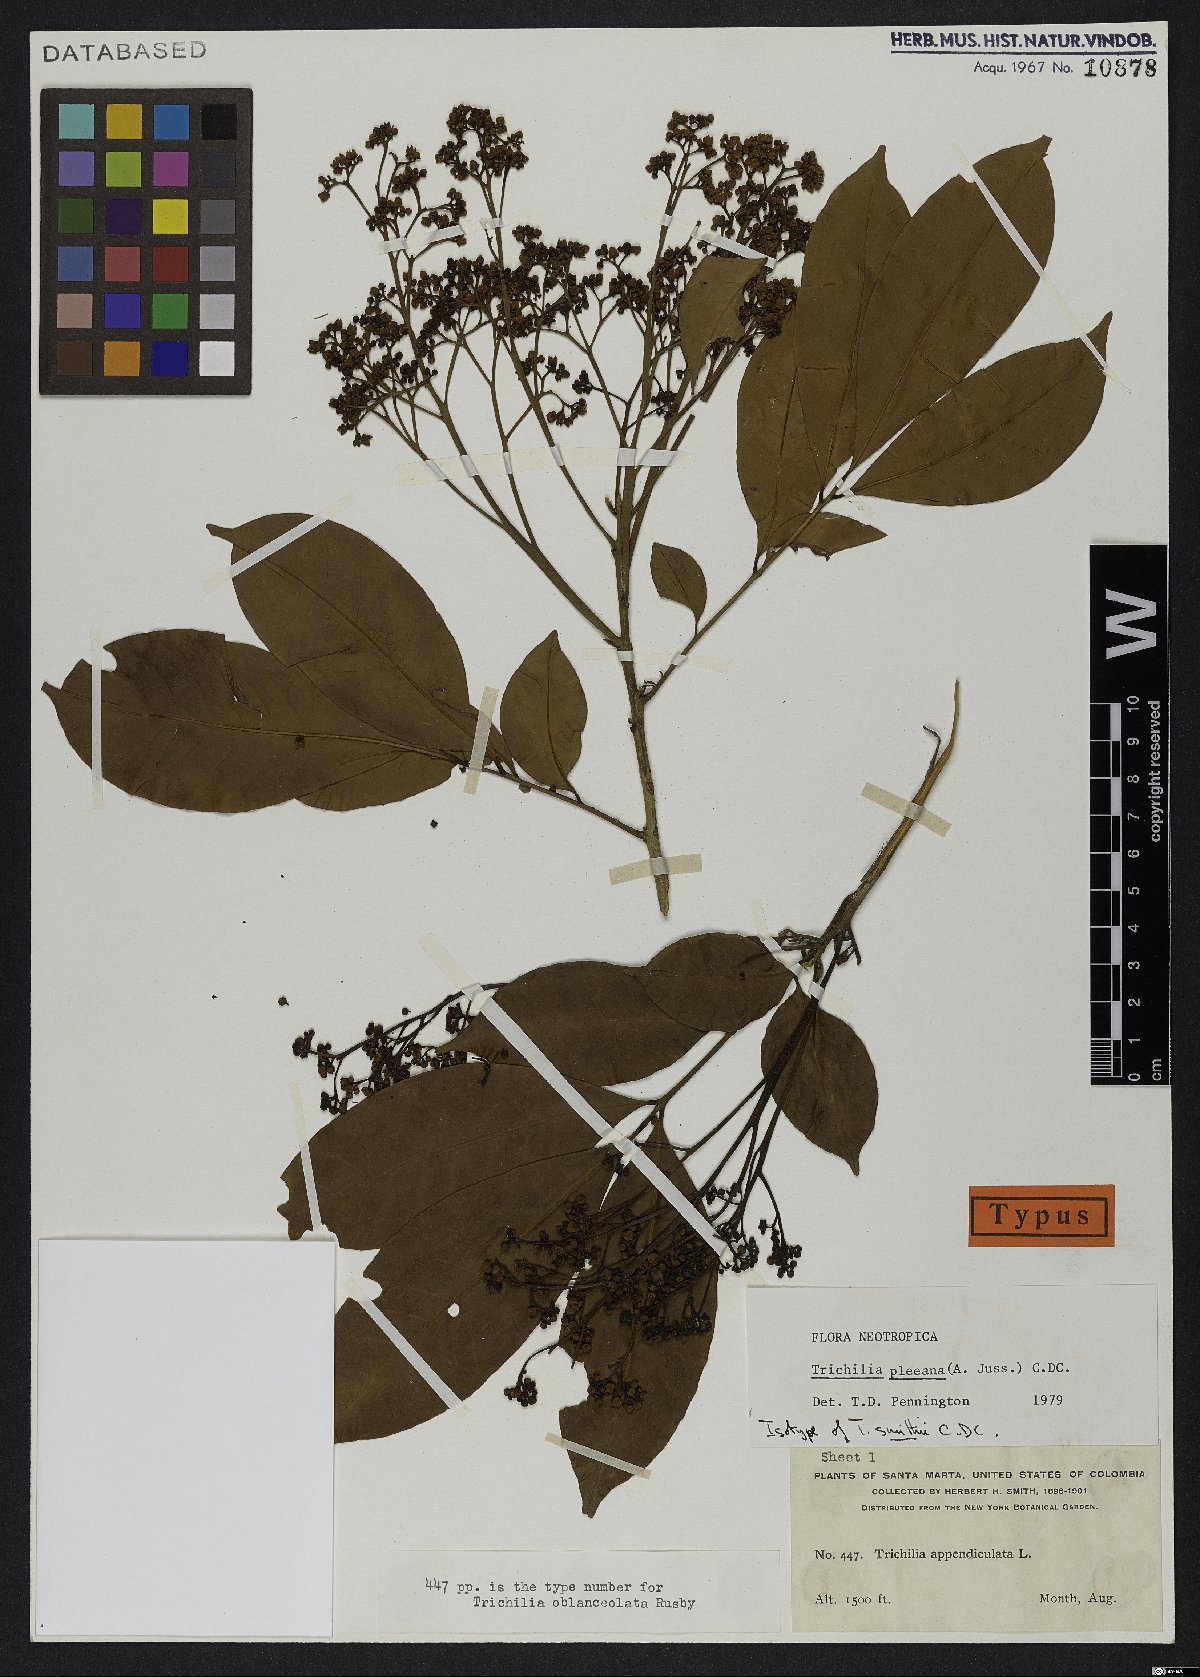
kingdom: Plantae
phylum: Tracheophyta
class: Magnoliopsida
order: Sapindales
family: Meliaceae
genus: Trichilia
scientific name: Trichilia pleeana
